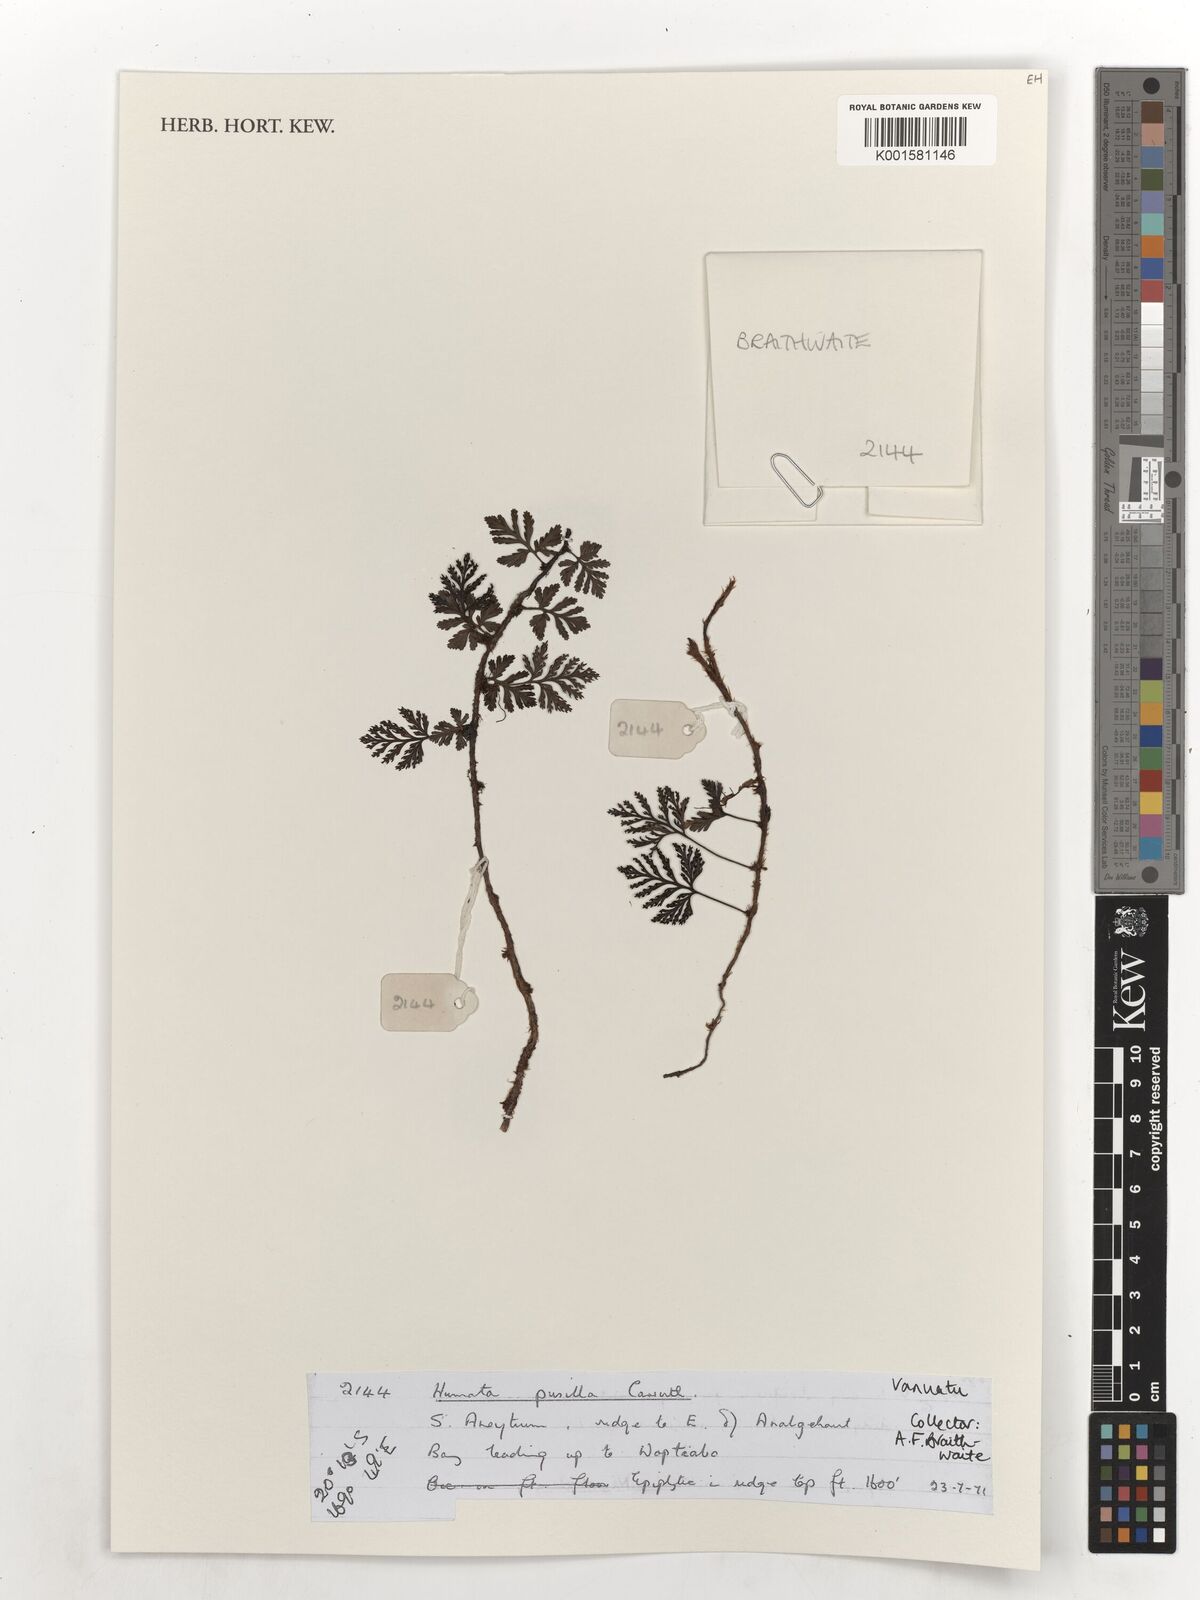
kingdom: Plantae
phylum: Tracheophyta
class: Polypodiopsida
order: Polypodiales
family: Davalliaceae
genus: Davallia
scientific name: Davallia pusilla
